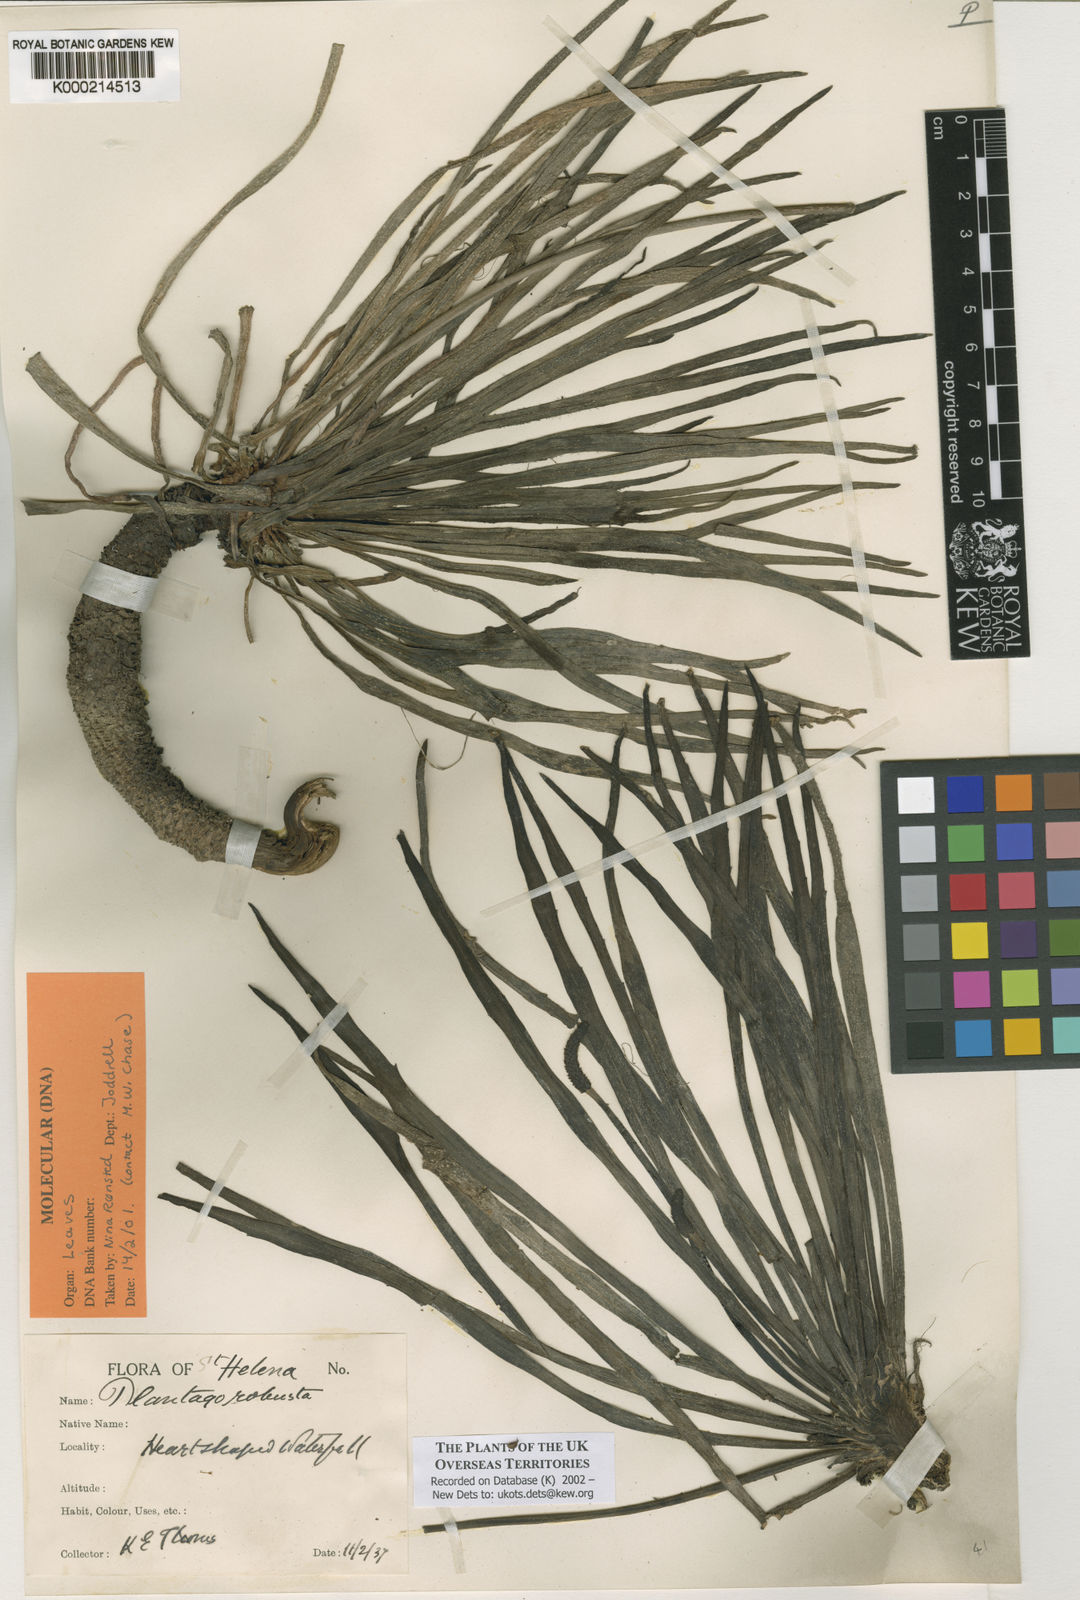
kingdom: Plantae
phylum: Tracheophyta
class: Magnoliopsida
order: Lamiales
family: Plantaginaceae
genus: Plantago
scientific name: Plantago robusta
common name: St helena plantain
